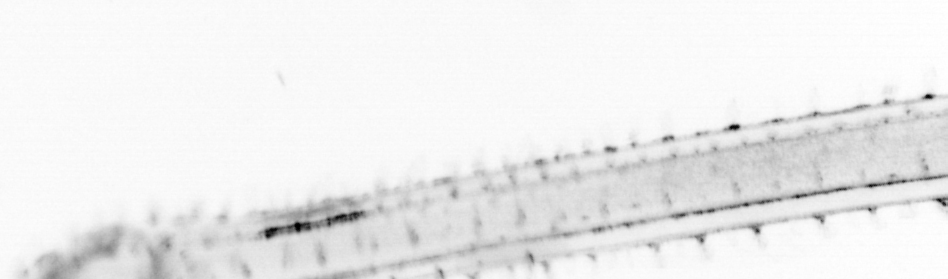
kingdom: Animalia
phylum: Chaetognatha
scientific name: Chaetognatha
